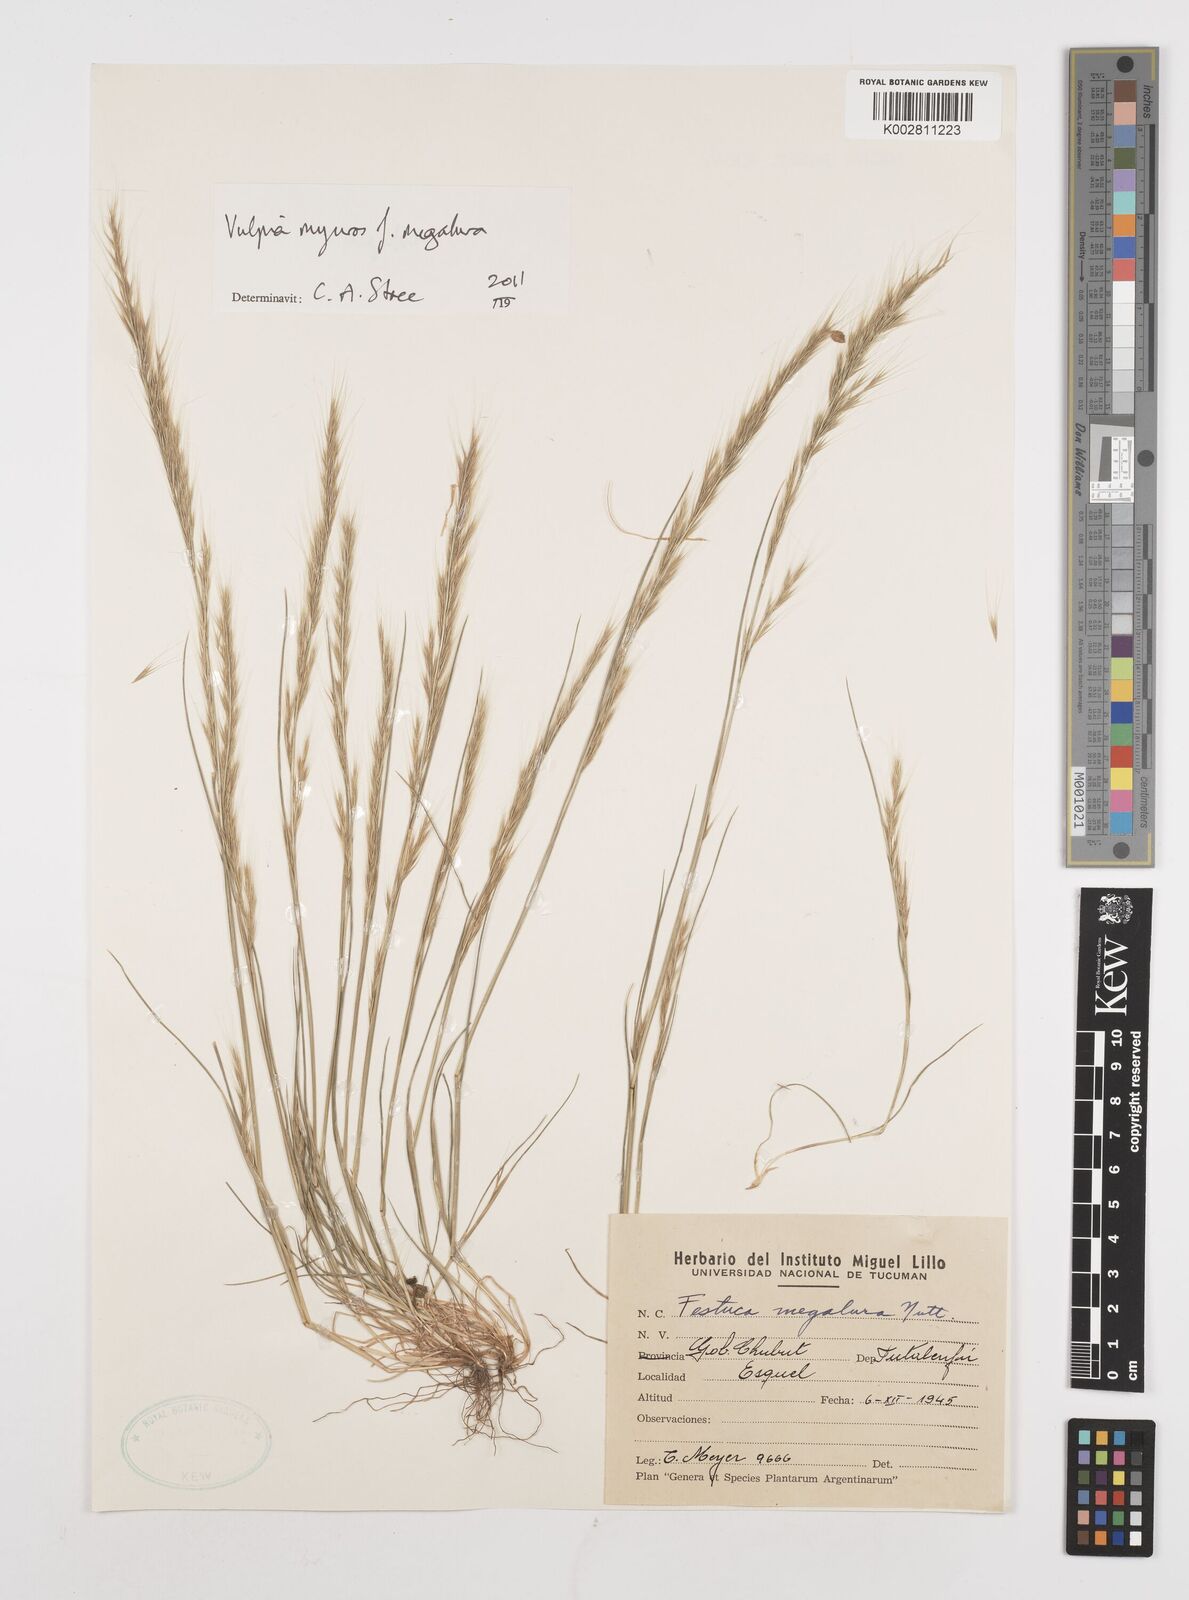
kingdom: Plantae
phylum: Tracheophyta
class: Liliopsida
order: Poales
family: Poaceae
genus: Festuca
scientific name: Festuca myuros
